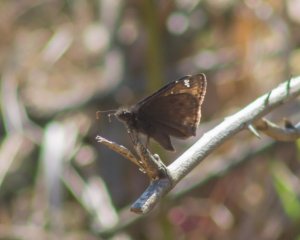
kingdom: Animalia
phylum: Arthropoda
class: Insecta
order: Lepidoptera
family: Hesperiidae
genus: Gesta
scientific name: Gesta
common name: Horace's Duskywing
